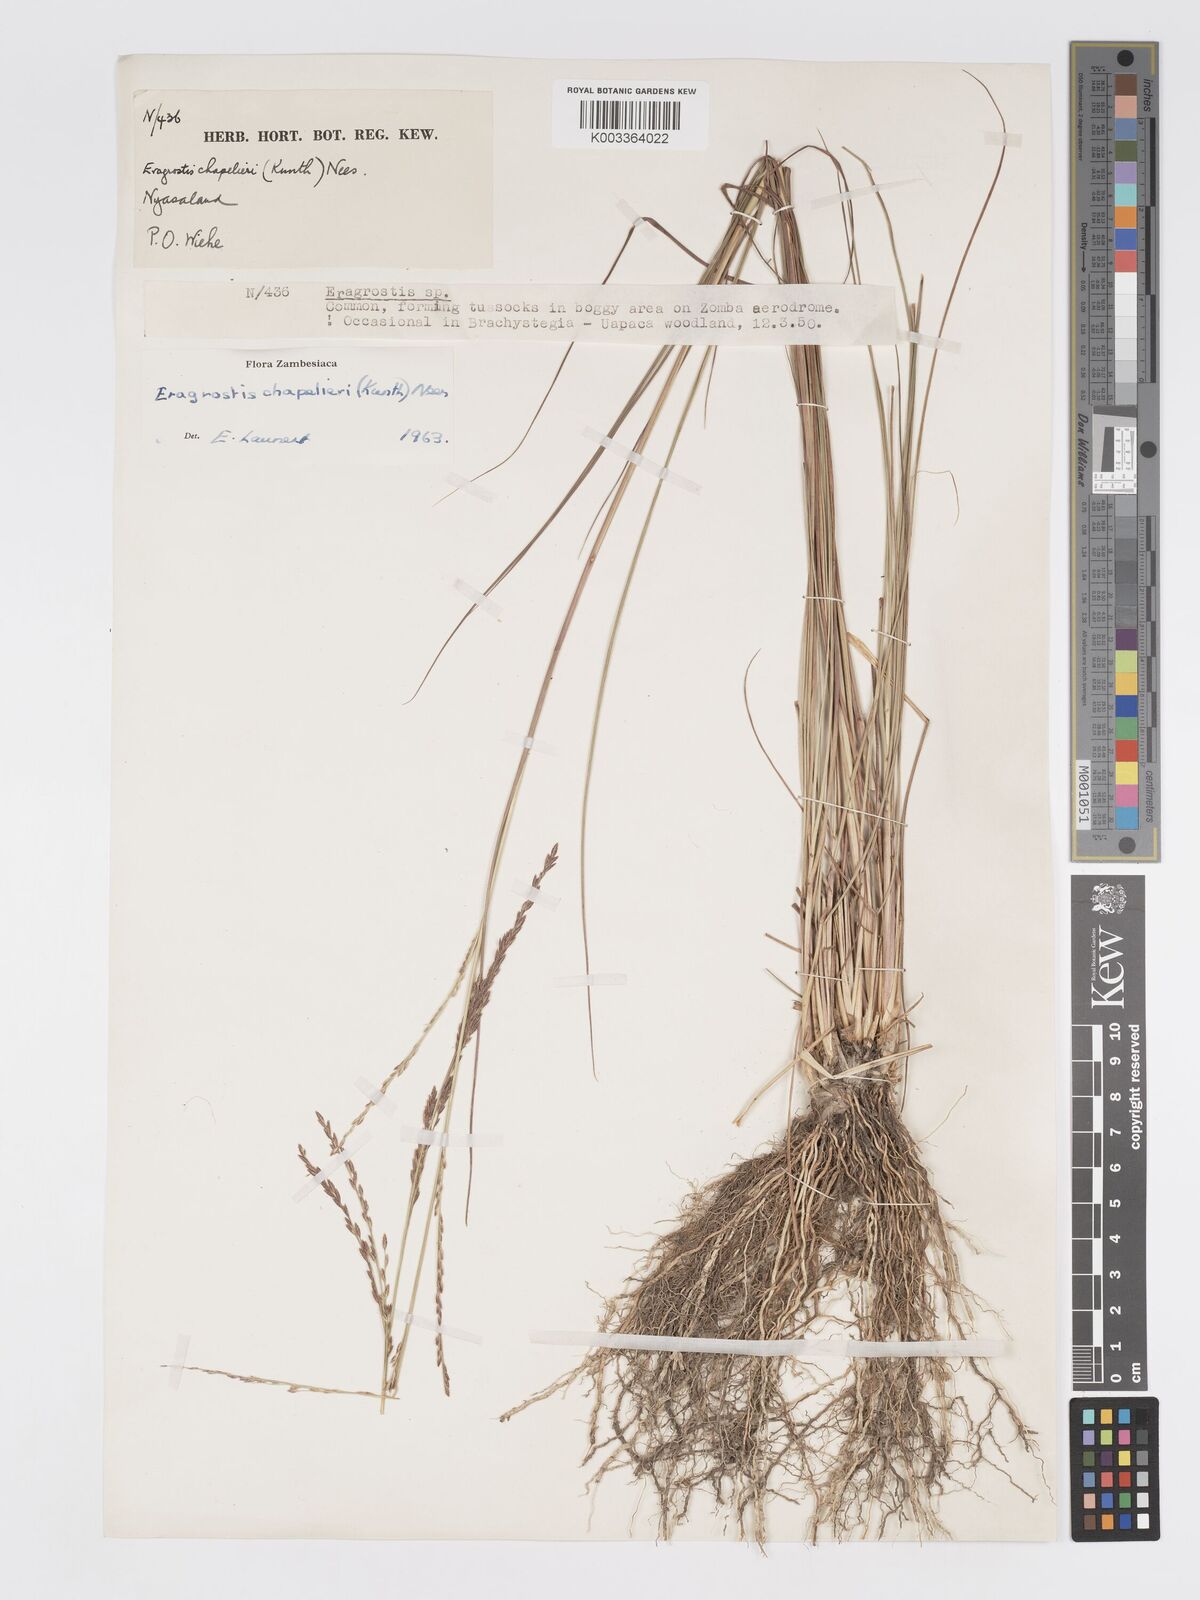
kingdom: Plantae
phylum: Tracheophyta
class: Liliopsida
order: Poales
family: Poaceae
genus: Eragrostis
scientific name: Eragrostis chapelieri
